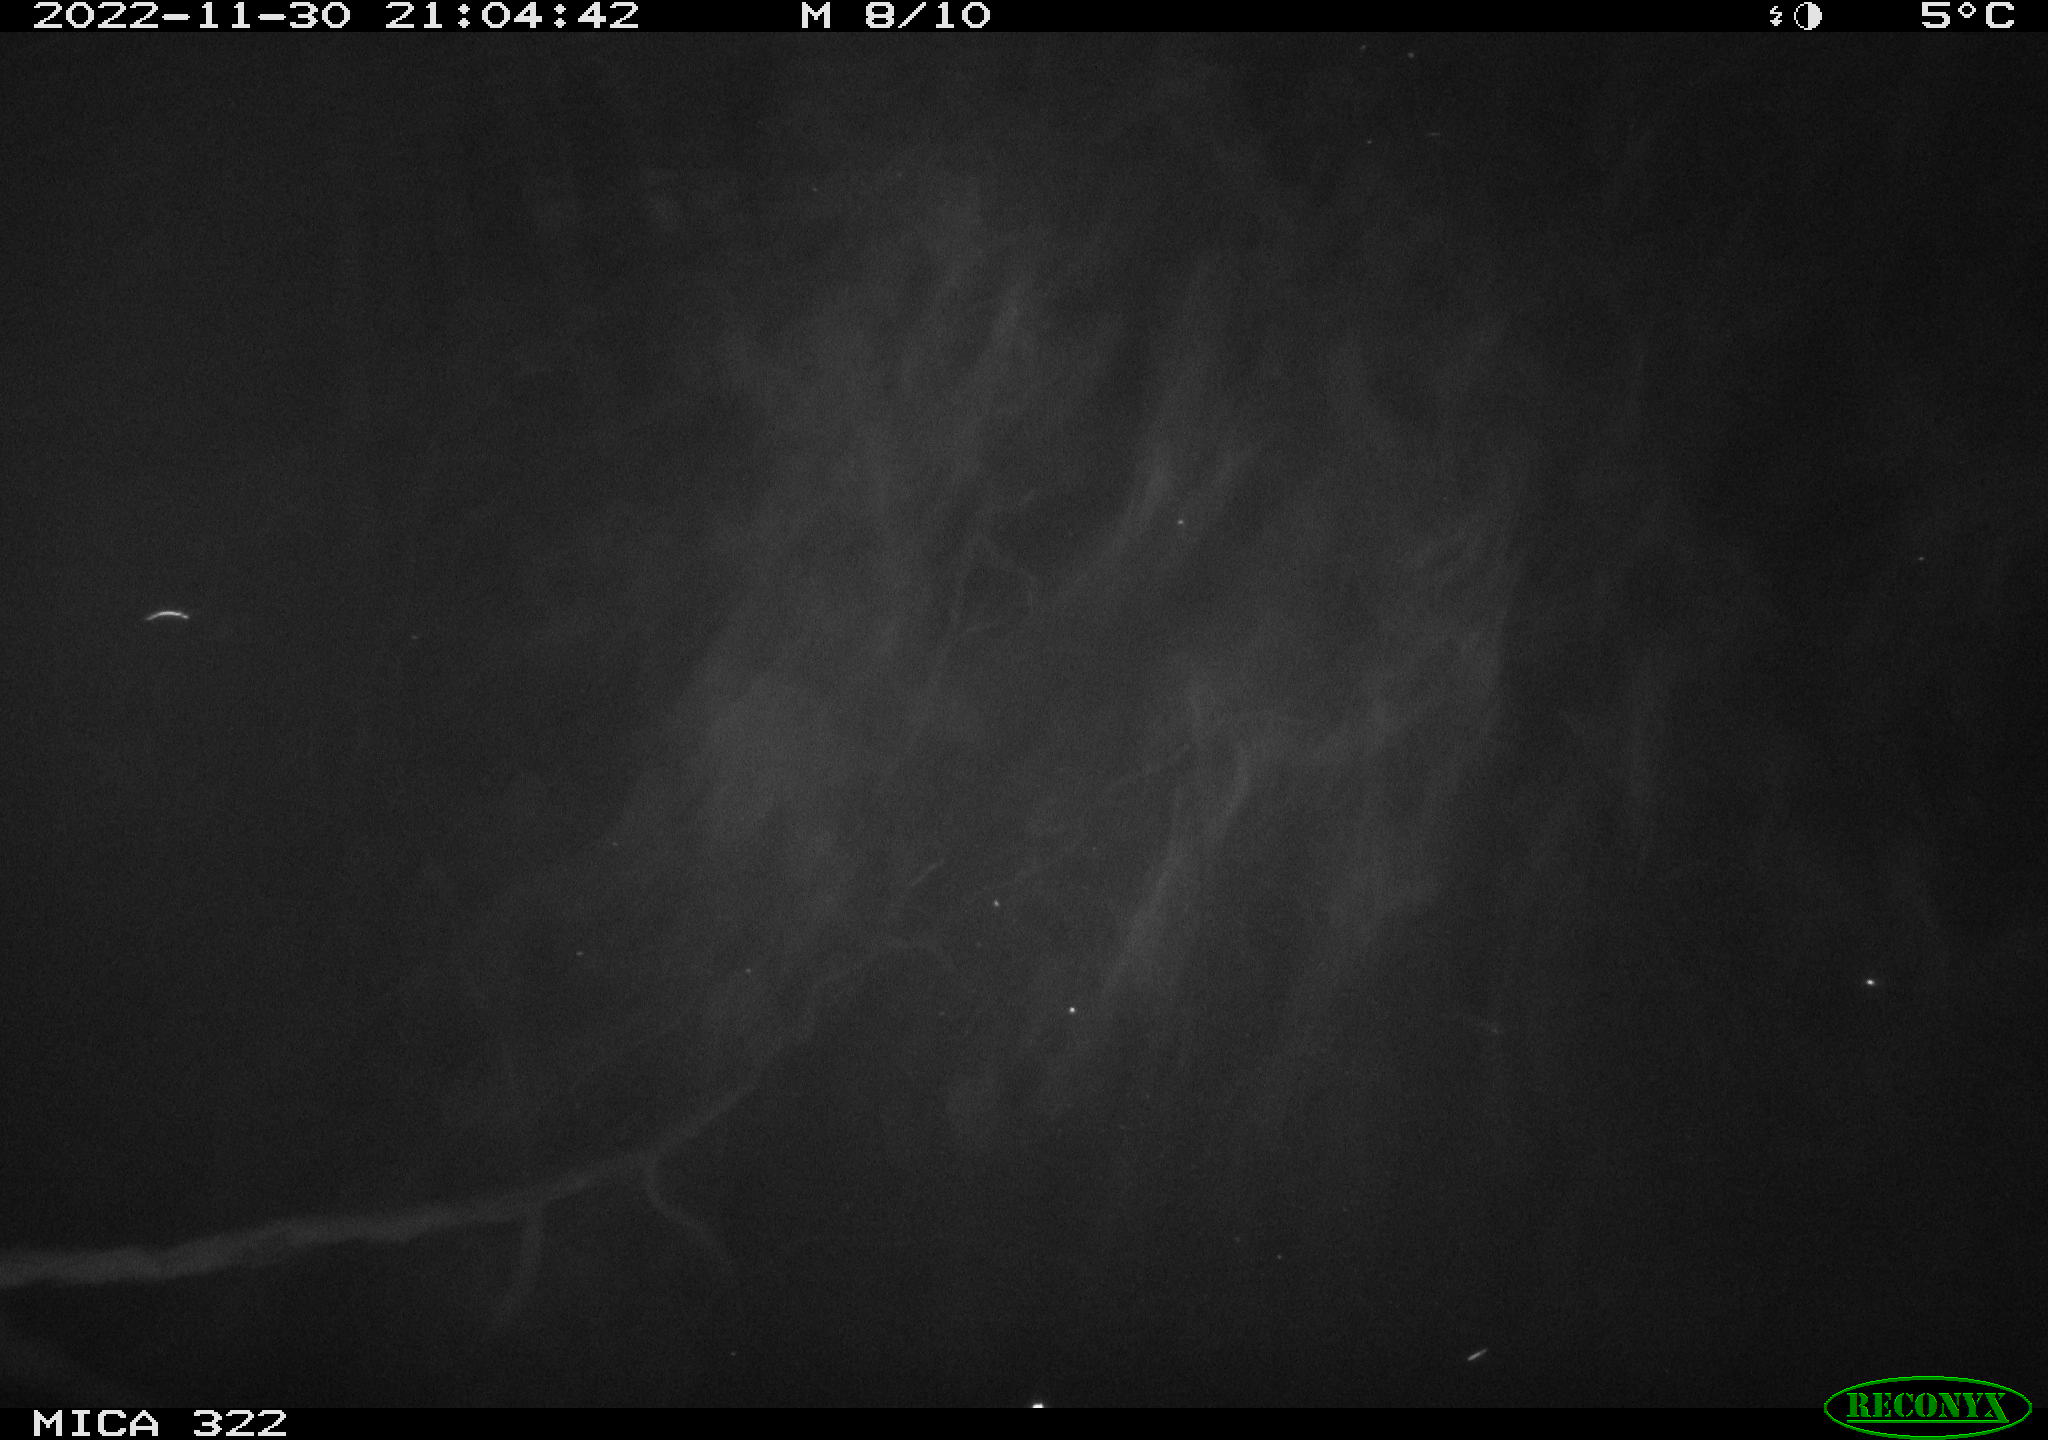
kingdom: Animalia
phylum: Chordata
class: Aves
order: Anseriformes
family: Anatidae
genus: Anas
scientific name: Anas
